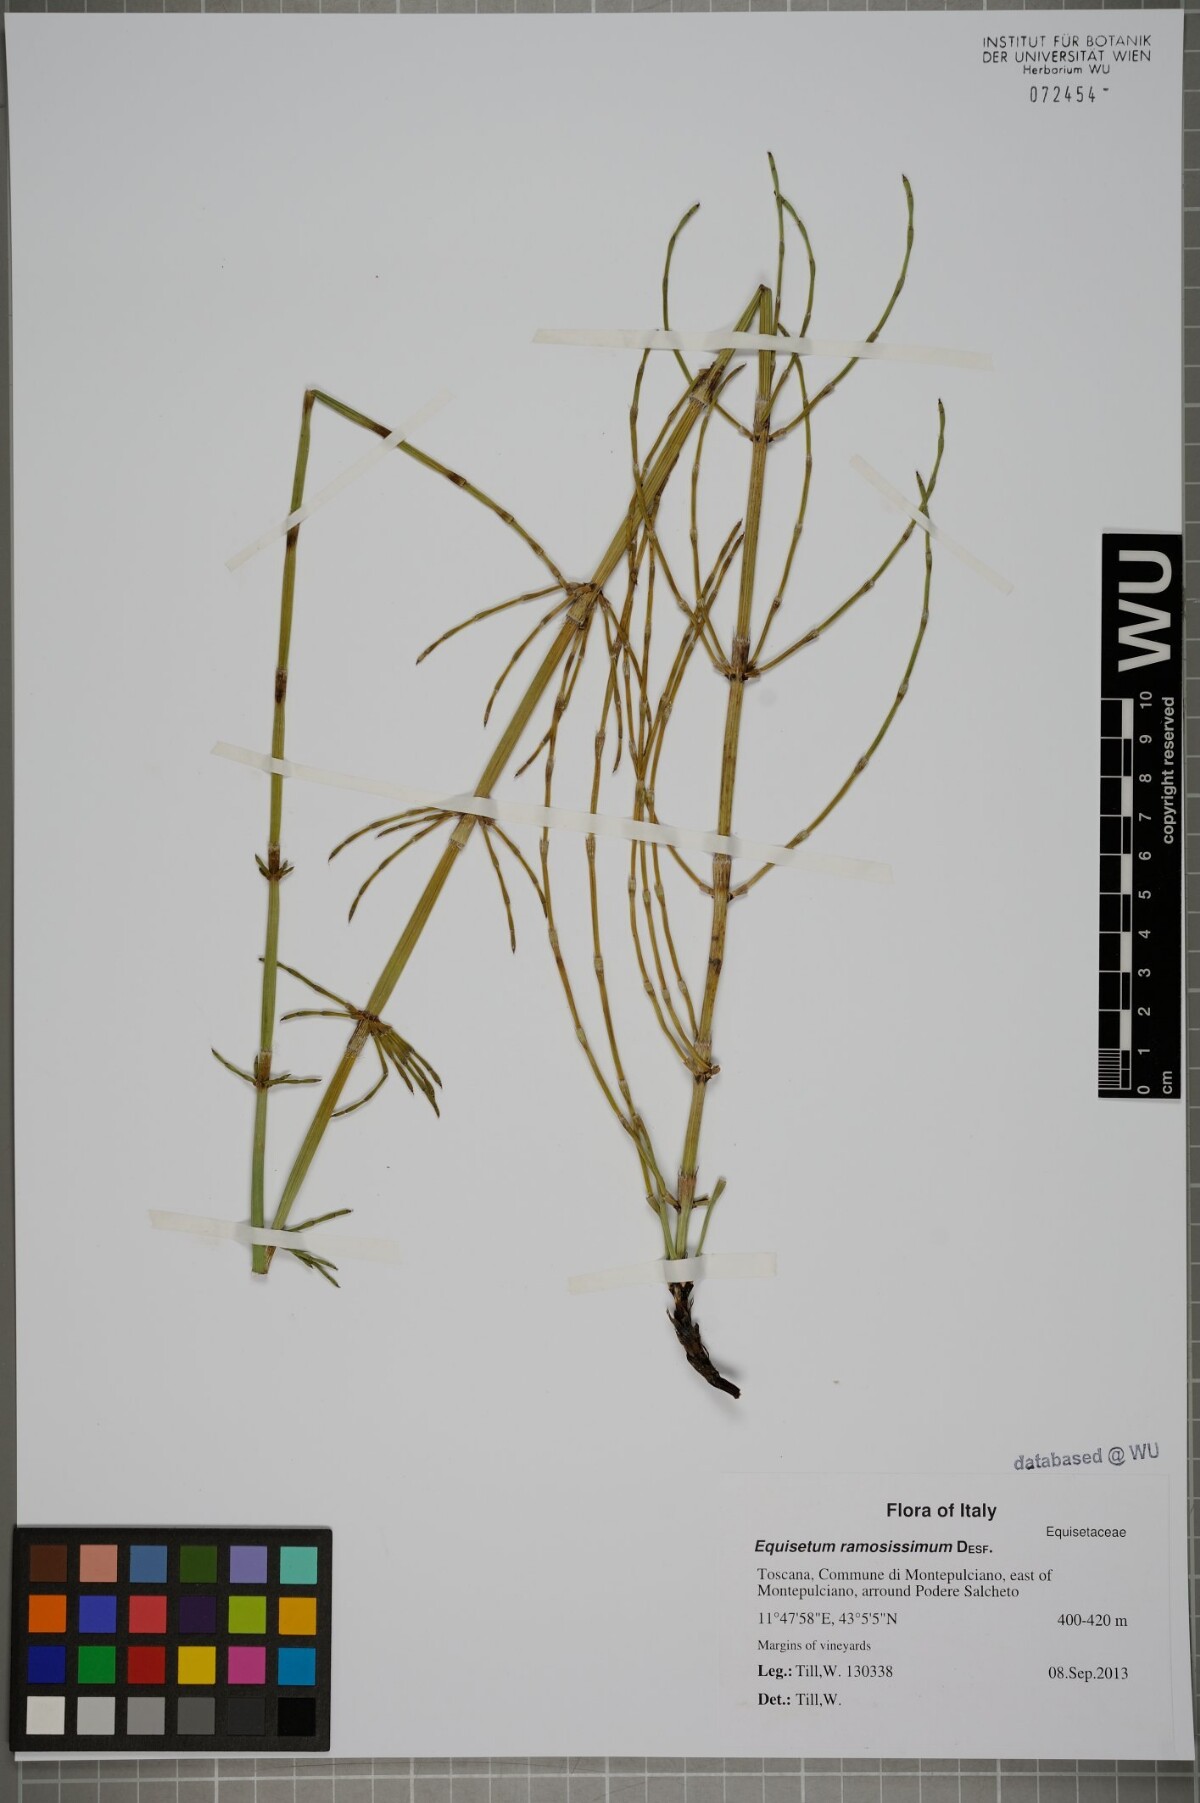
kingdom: Plantae
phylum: Tracheophyta
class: Polypodiopsida
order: Equisetales
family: Equisetaceae
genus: Equisetum
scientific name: Equisetum ramosissimum
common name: Branched horsetail
